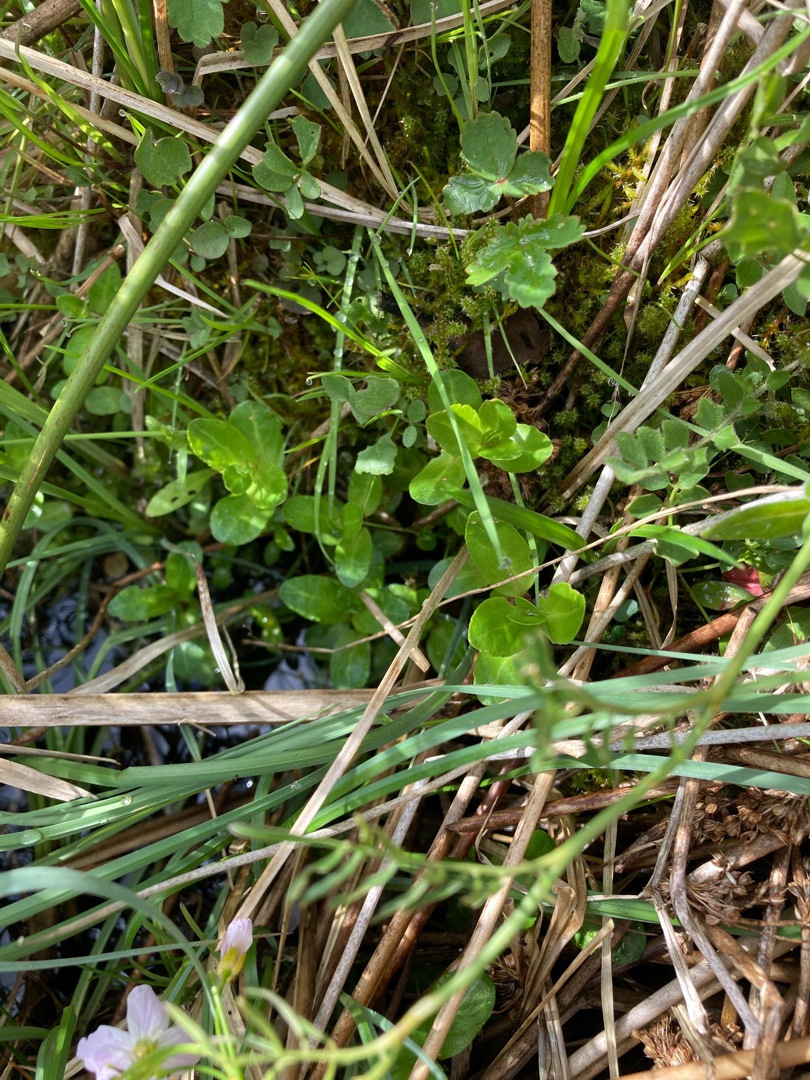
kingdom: Plantae
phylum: Tracheophyta
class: Magnoliopsida
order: Lamiales
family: Plantaginaceae
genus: Veronica
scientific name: Veronica beccabunga
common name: Tykbladet ærenpris
